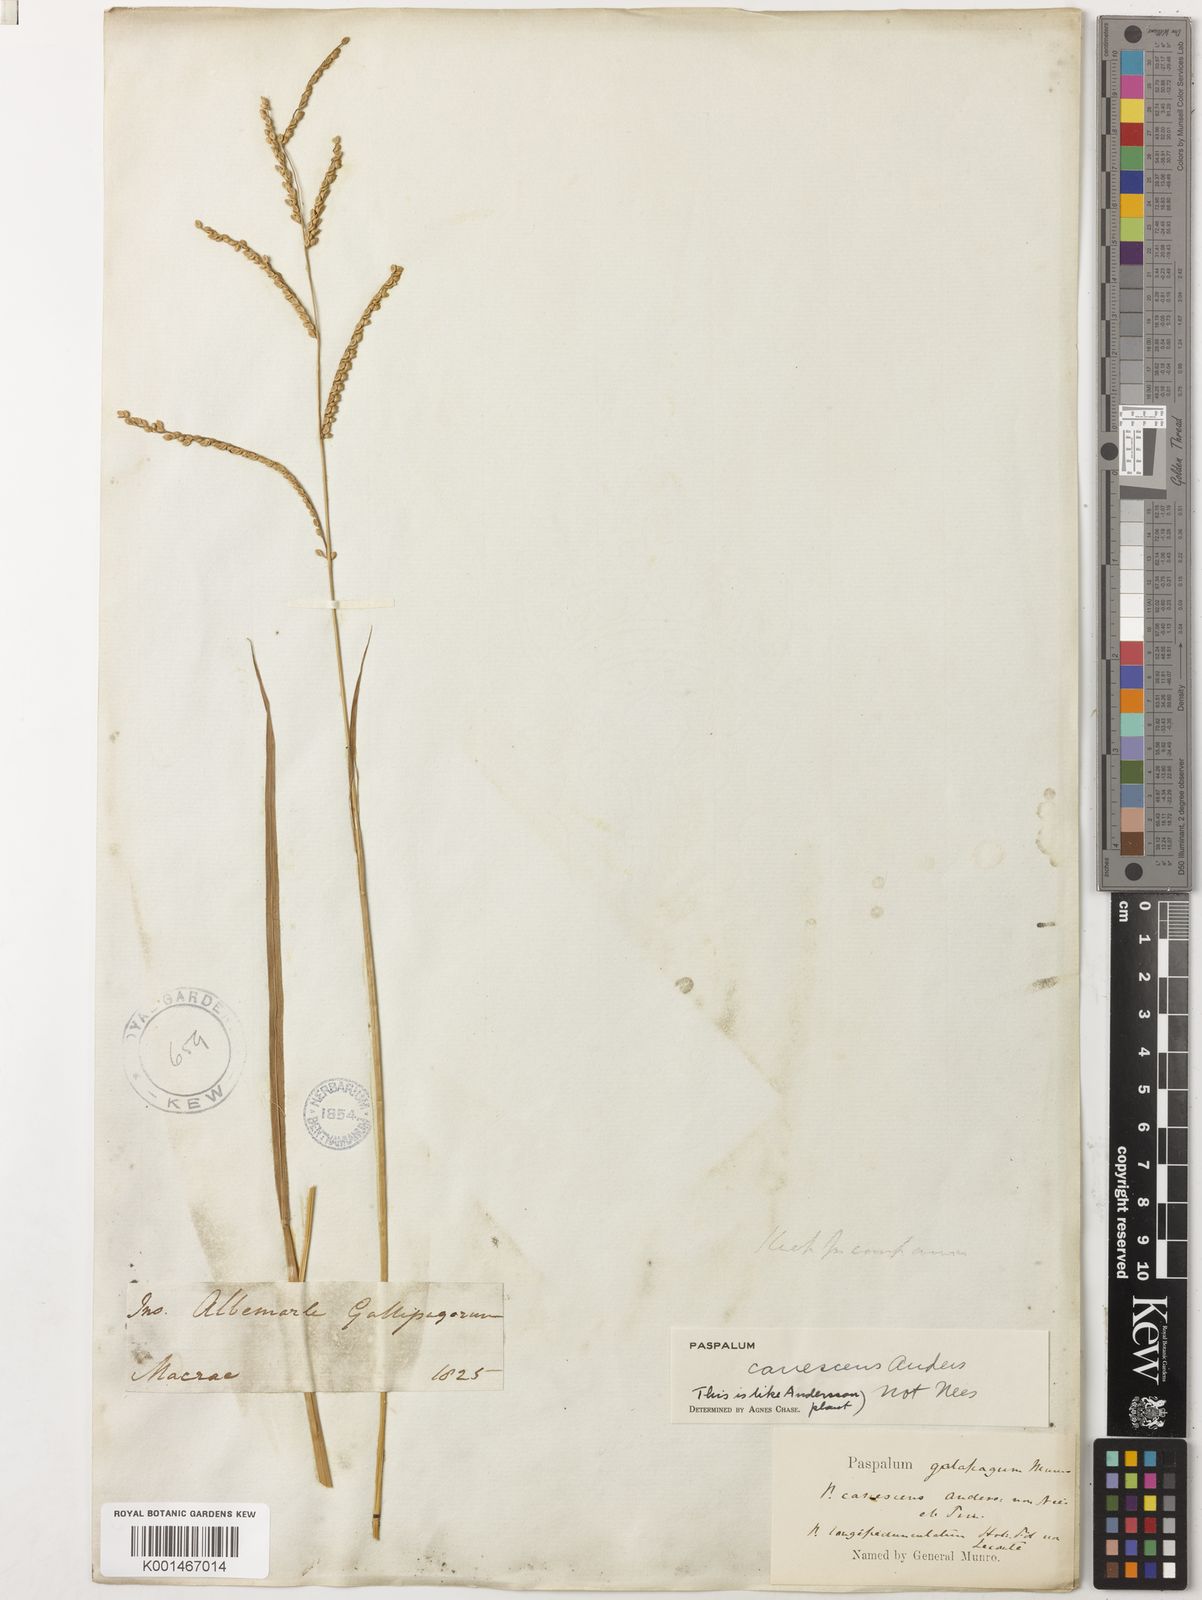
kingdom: Plantae
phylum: Tracheophyta
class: Liliopsida
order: Poales
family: Poaceae
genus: Paspalum
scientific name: Paspalum galapageium
